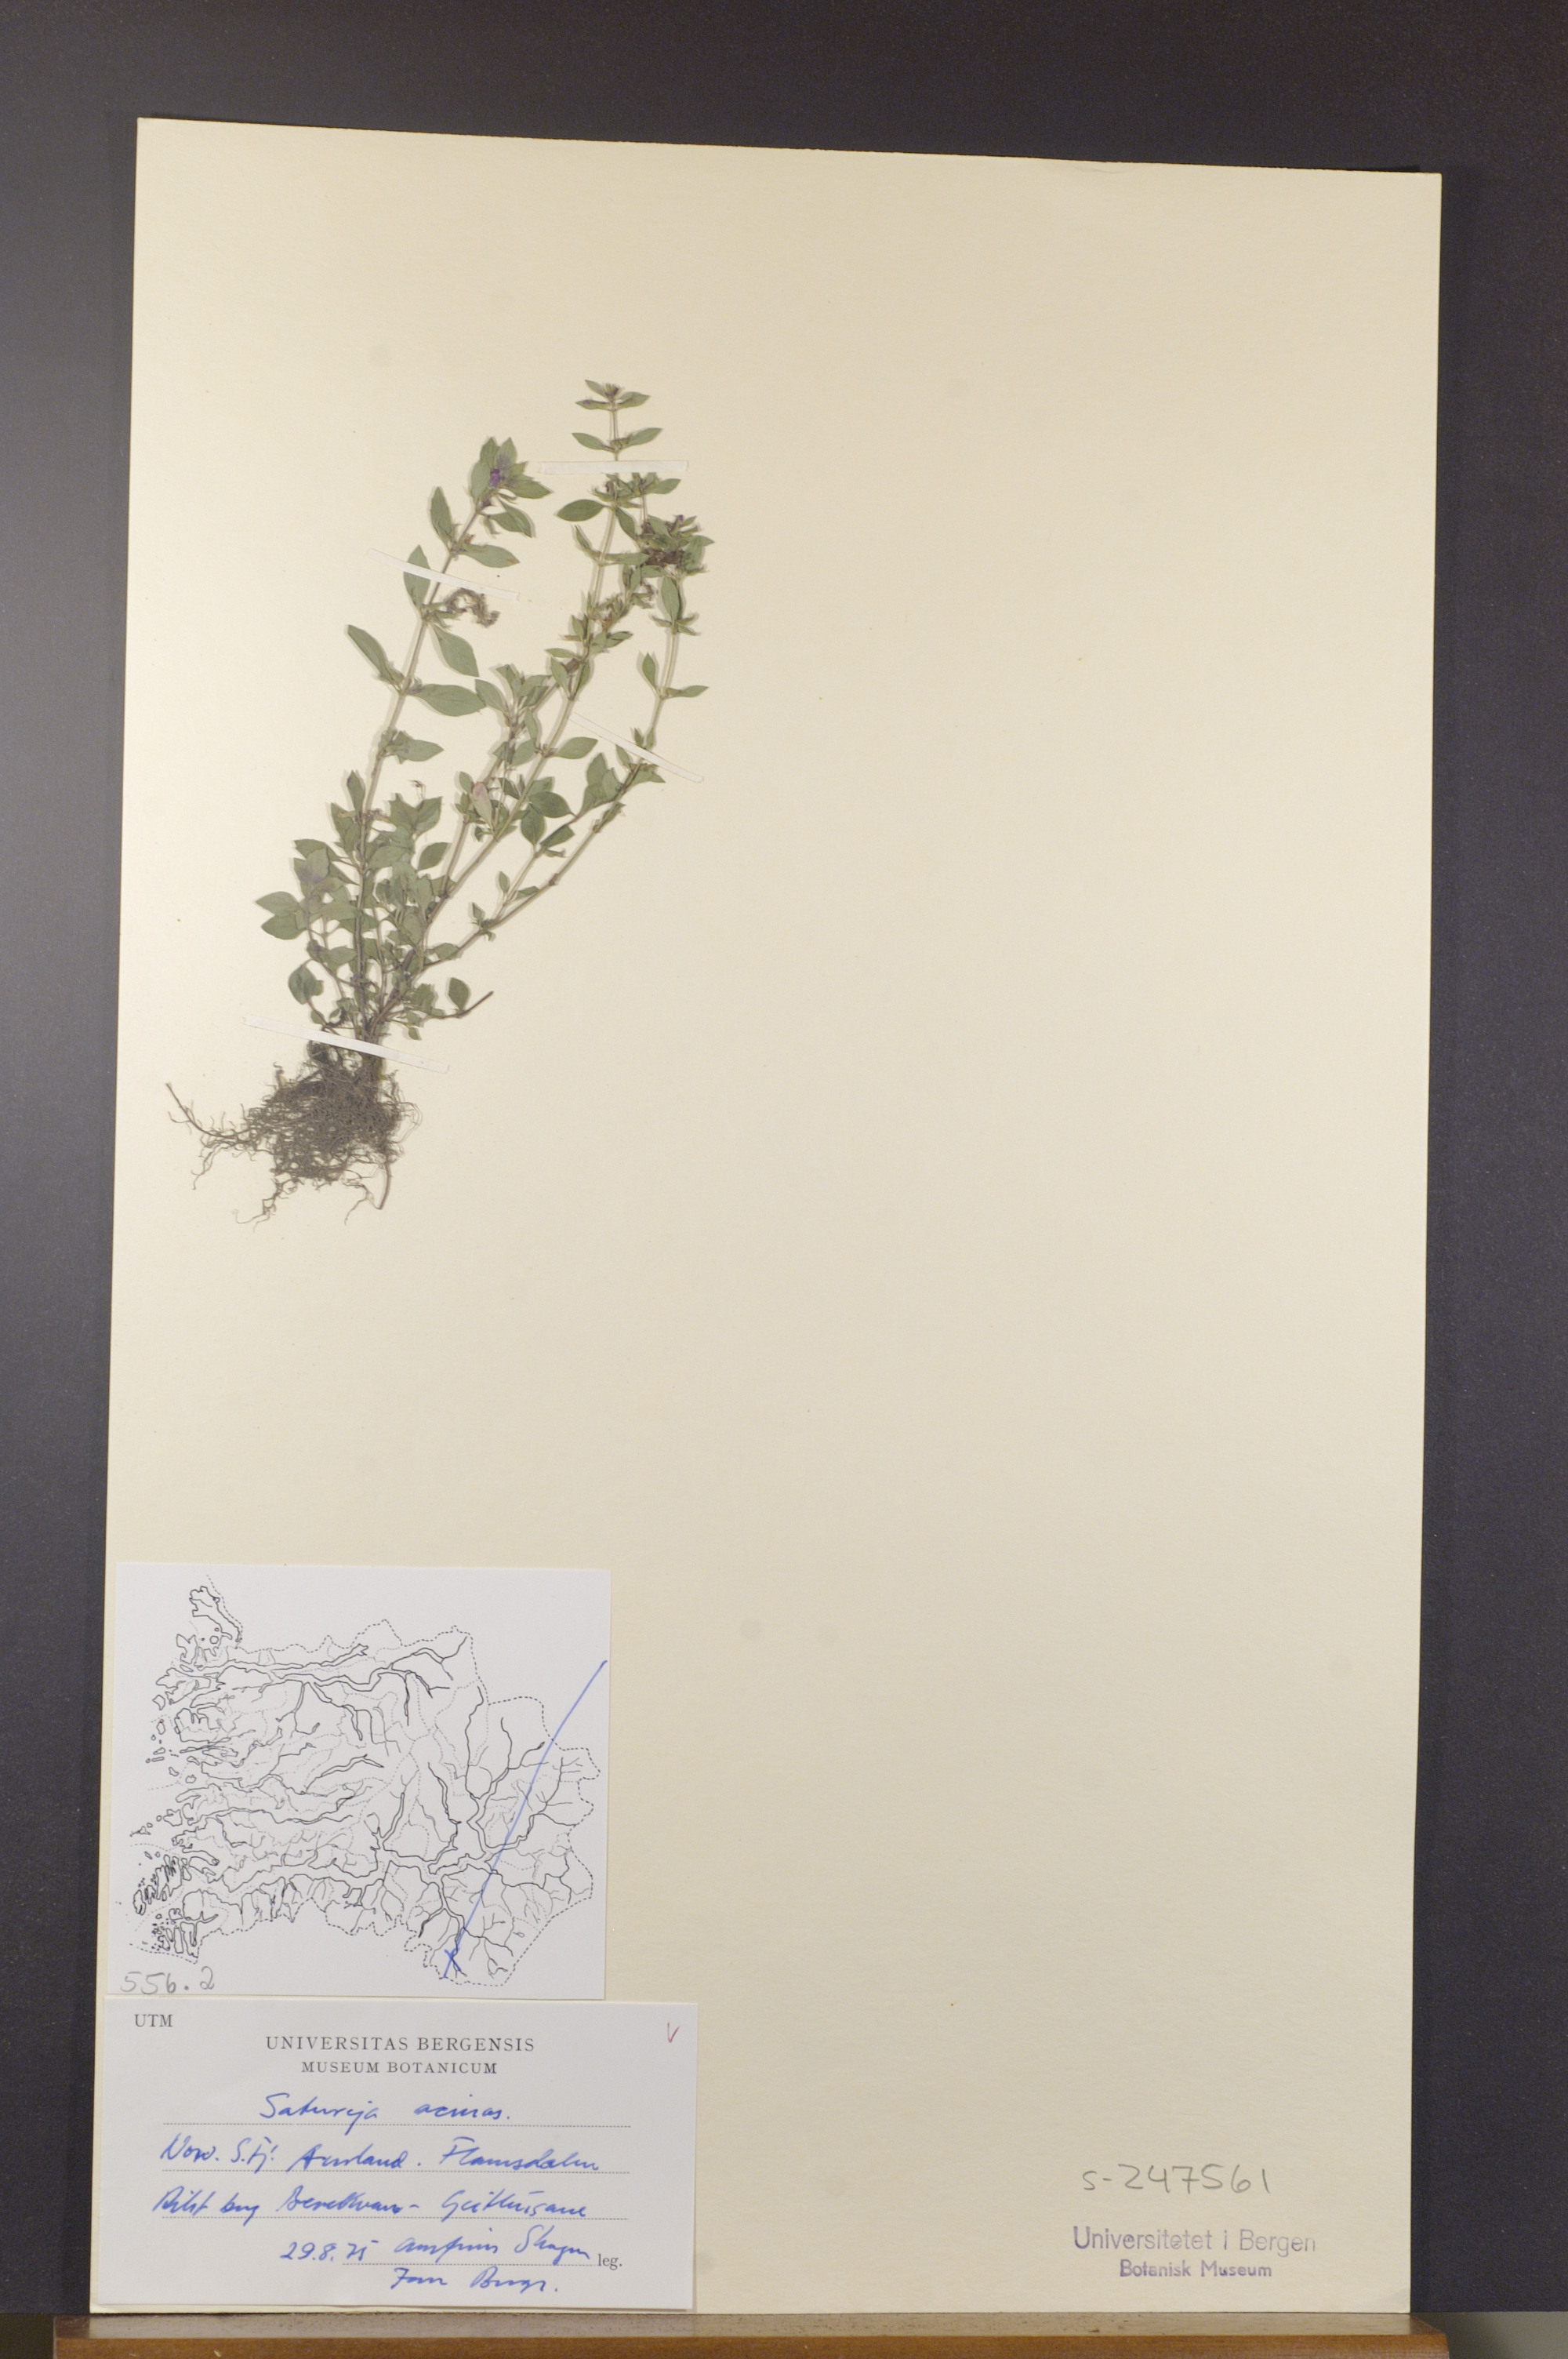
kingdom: Plantae
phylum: Tracheophyta
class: Magnoliopsida
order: Lamiales
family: Lamiaceae
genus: Clinopodium
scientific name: Clinopodium acinos
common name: Basil thyme
